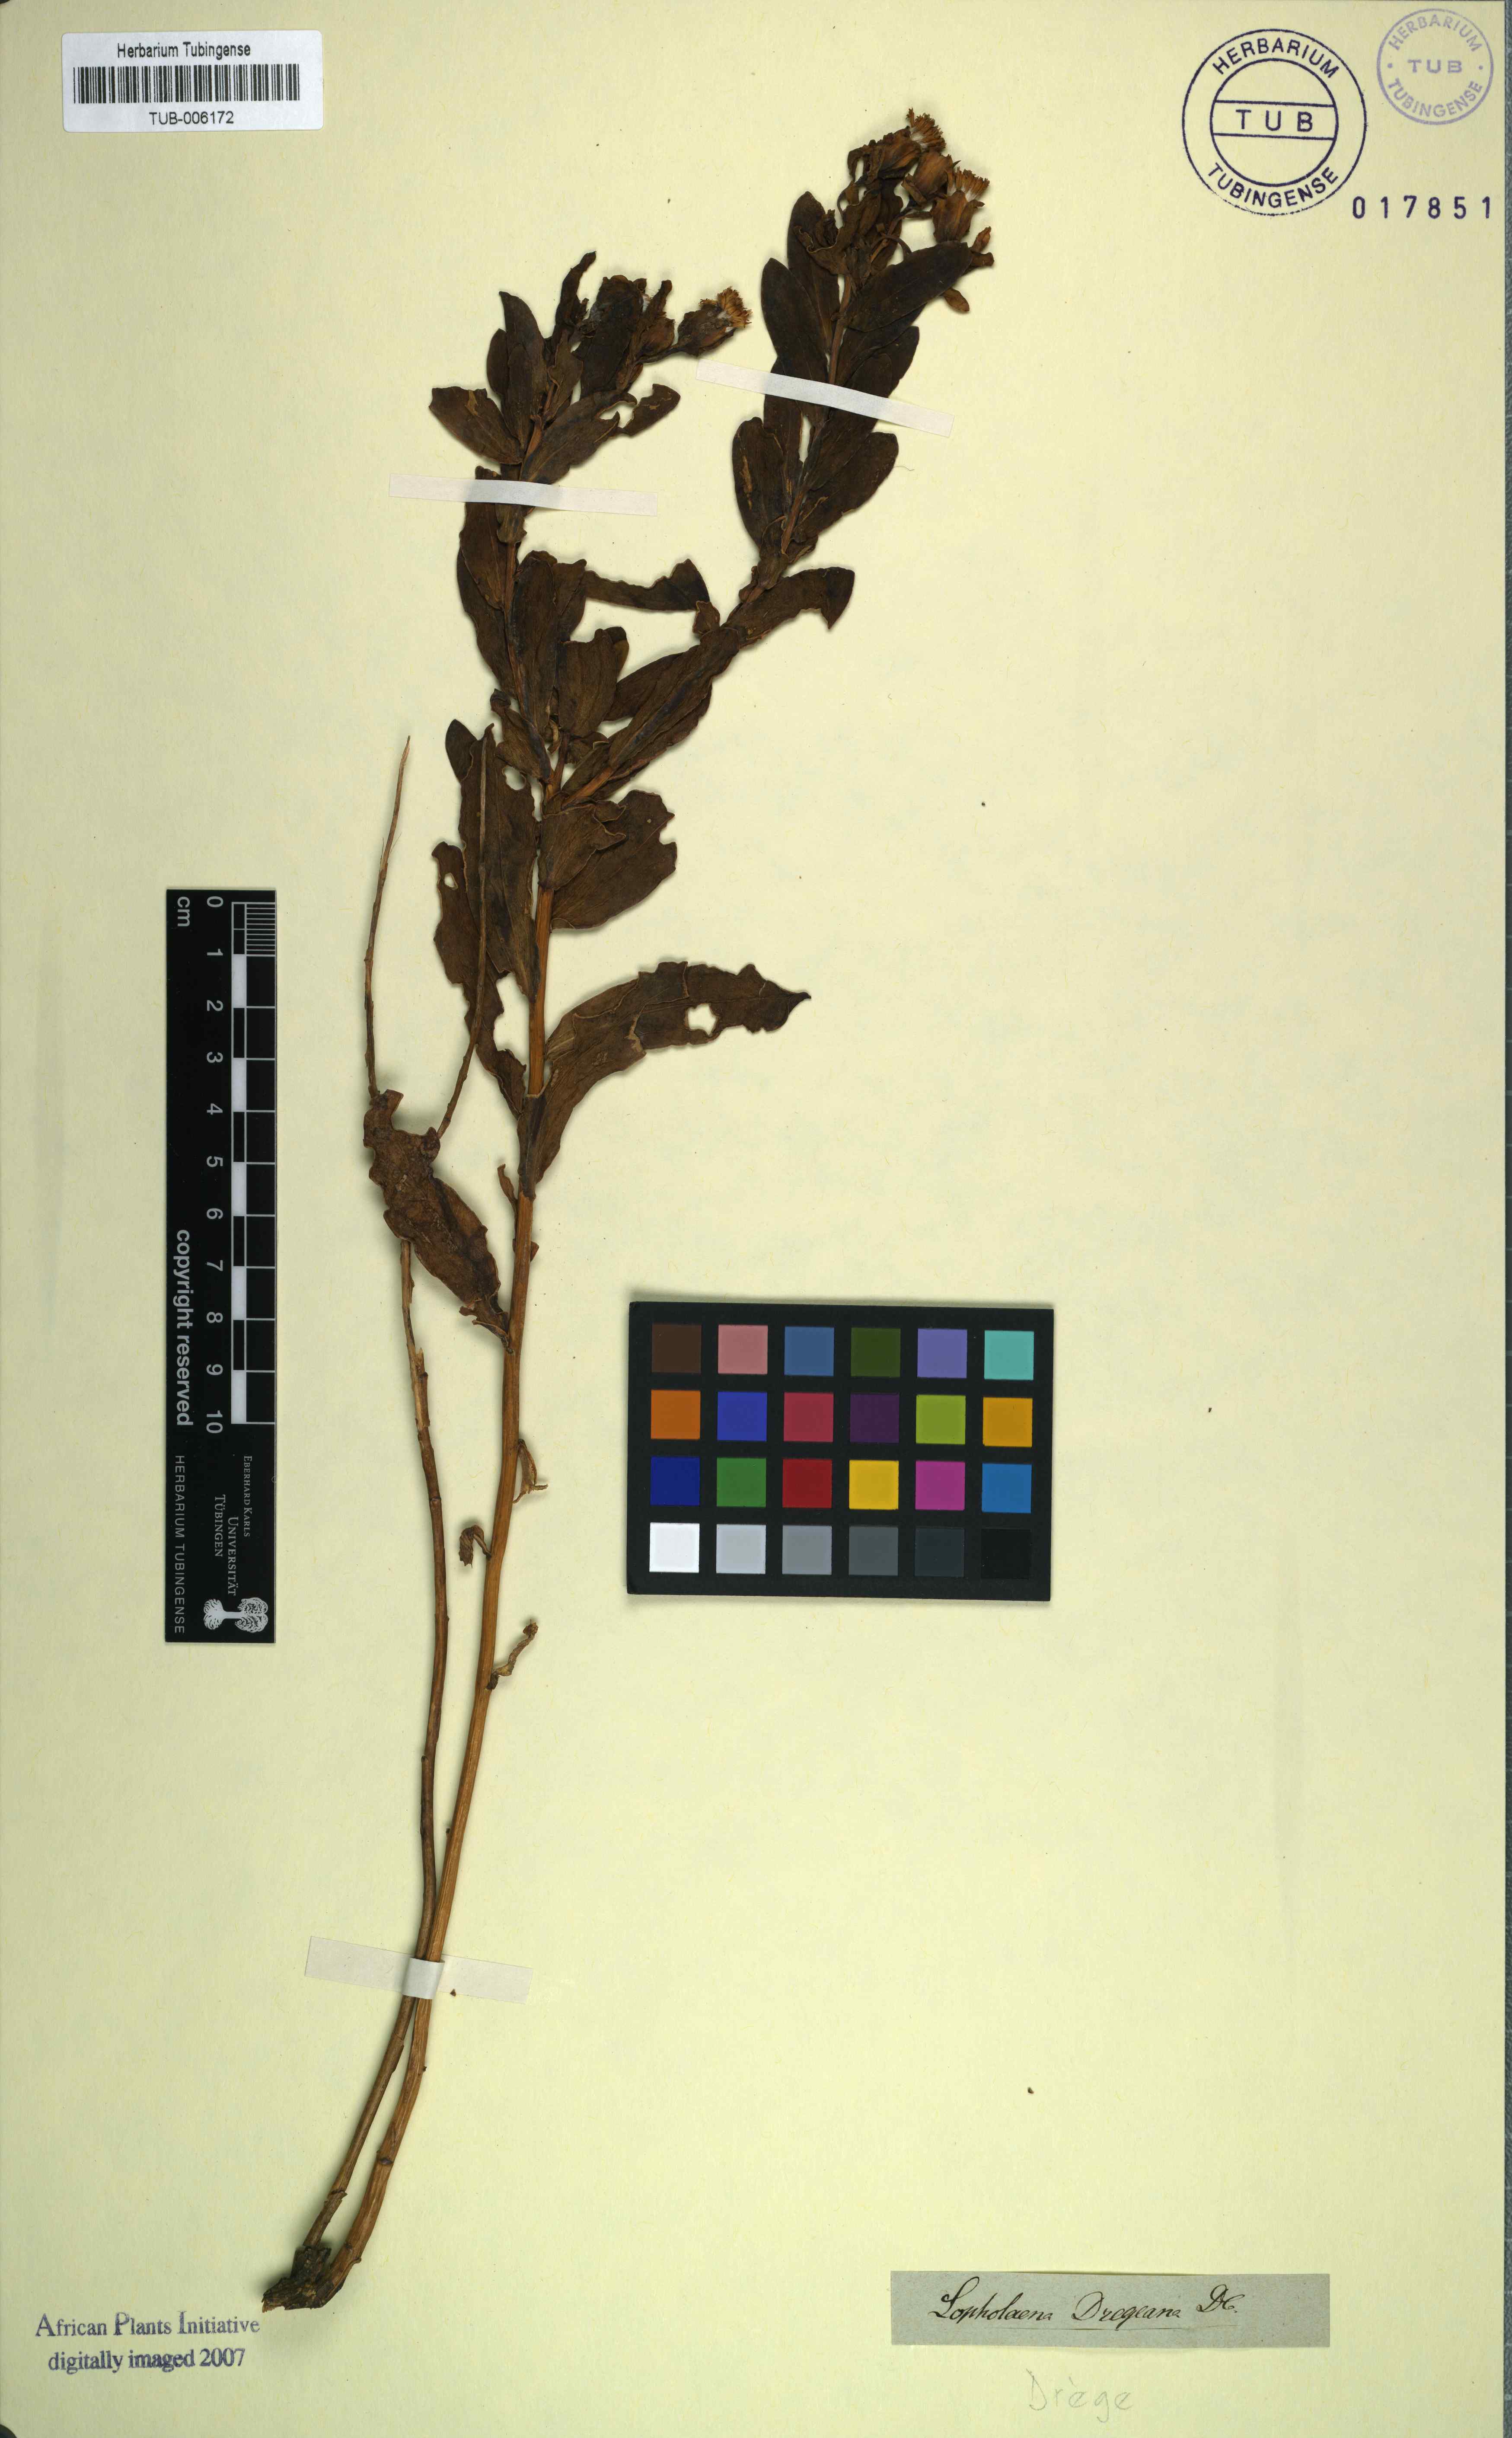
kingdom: Plantae
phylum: Tracheophyta
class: Magnoliopsida
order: Asterales
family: Asteraceae
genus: Lopholaena
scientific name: Lopholaena dregeana
